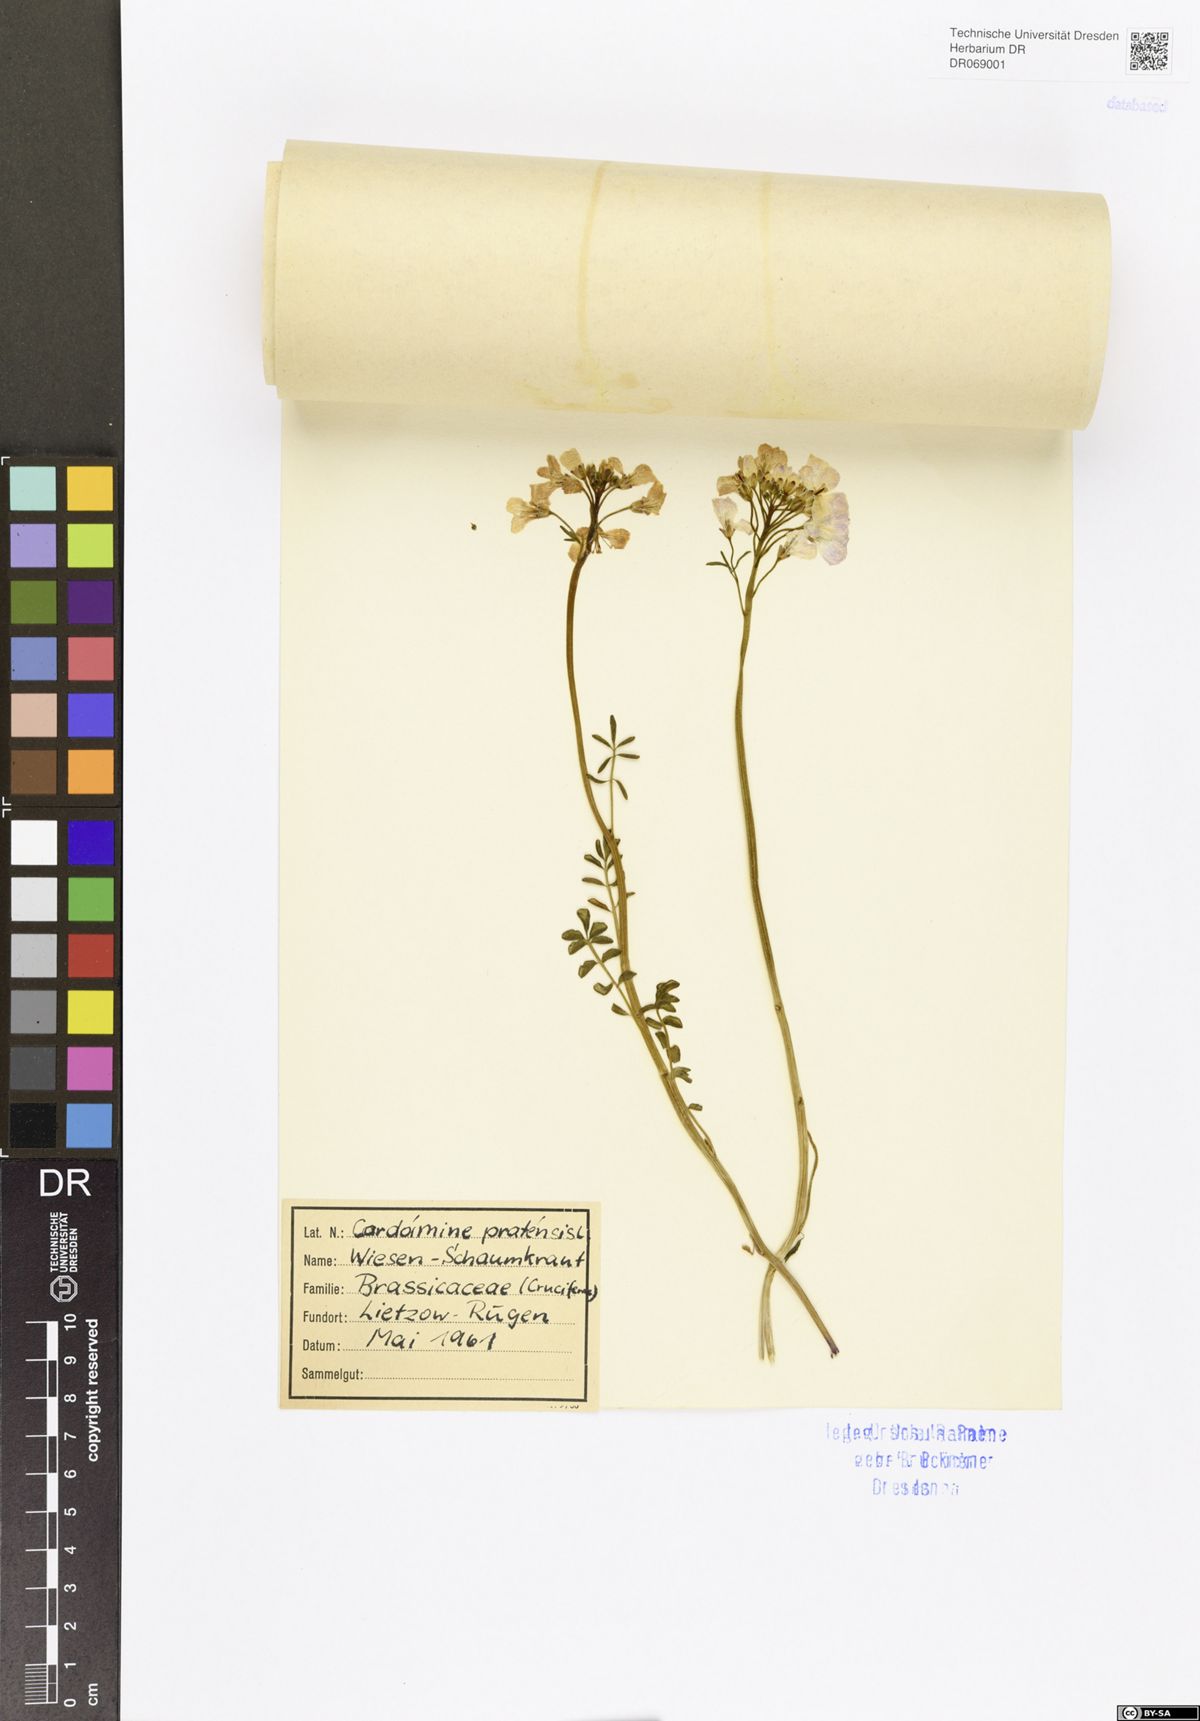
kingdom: Plantae
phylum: Tracheophyta
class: Magnoliopsida
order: Brassicales
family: Brassicaceae
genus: Cardamine
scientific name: Cardamine pratensis
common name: Cuckoo flower
